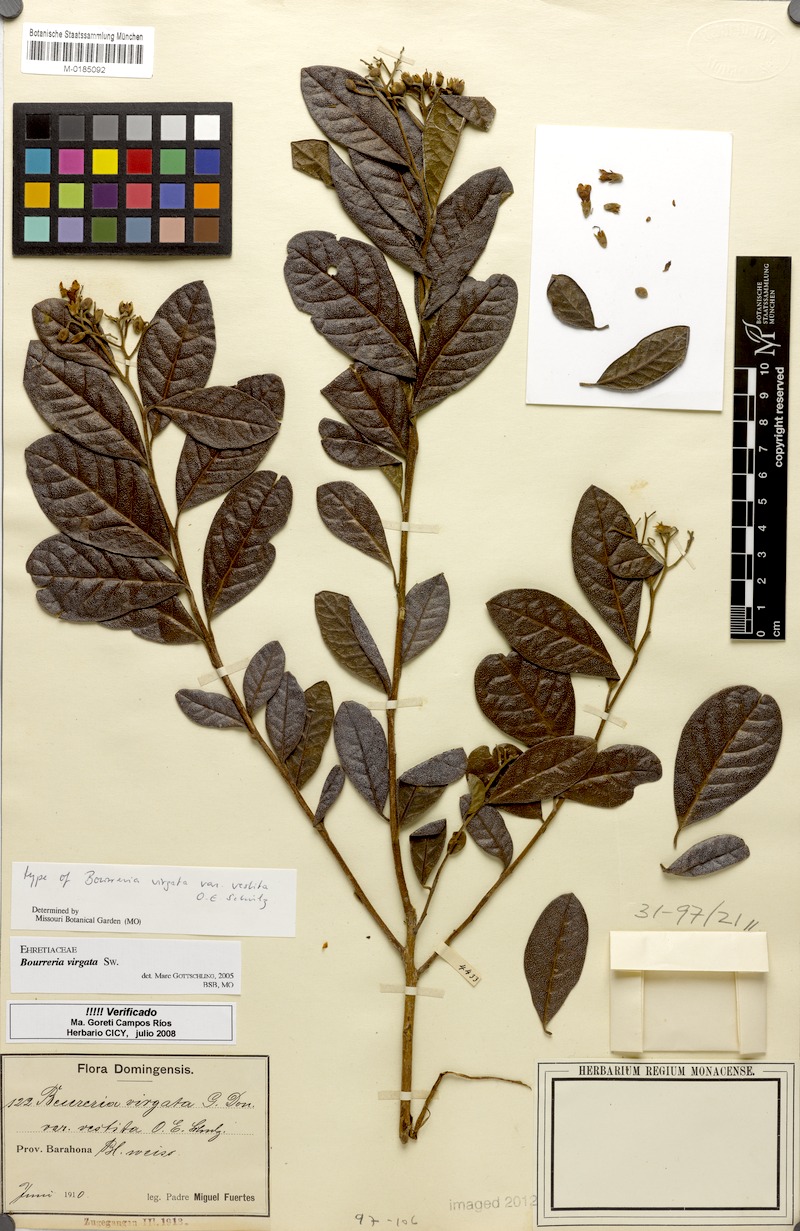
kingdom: Plantae
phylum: Tracheophyta
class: Magnoliopsida
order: Boraginales
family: Ehretiaceae
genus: Bourreria
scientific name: Bourreria virgata
